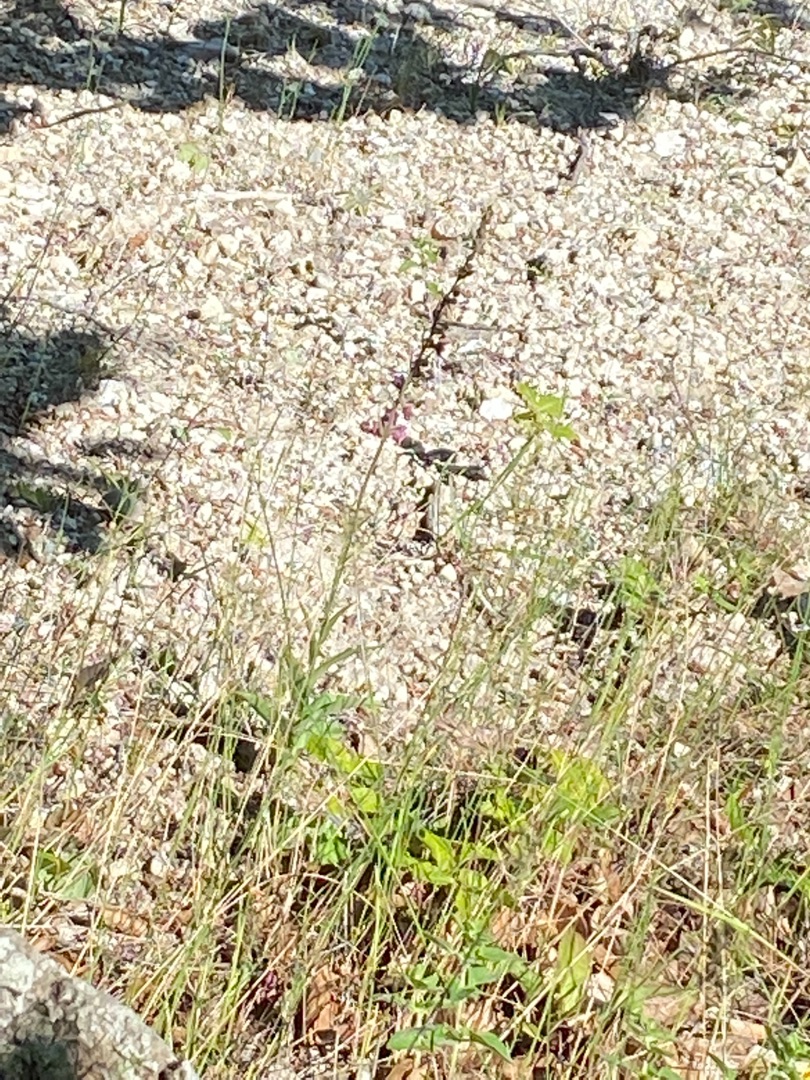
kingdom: Plantae
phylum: Tracheophyta
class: Liliopsida
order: Asparagales
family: Orchidaceae
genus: Epipactis
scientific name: Epipactis atrorubens
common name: Rød hullæbe
